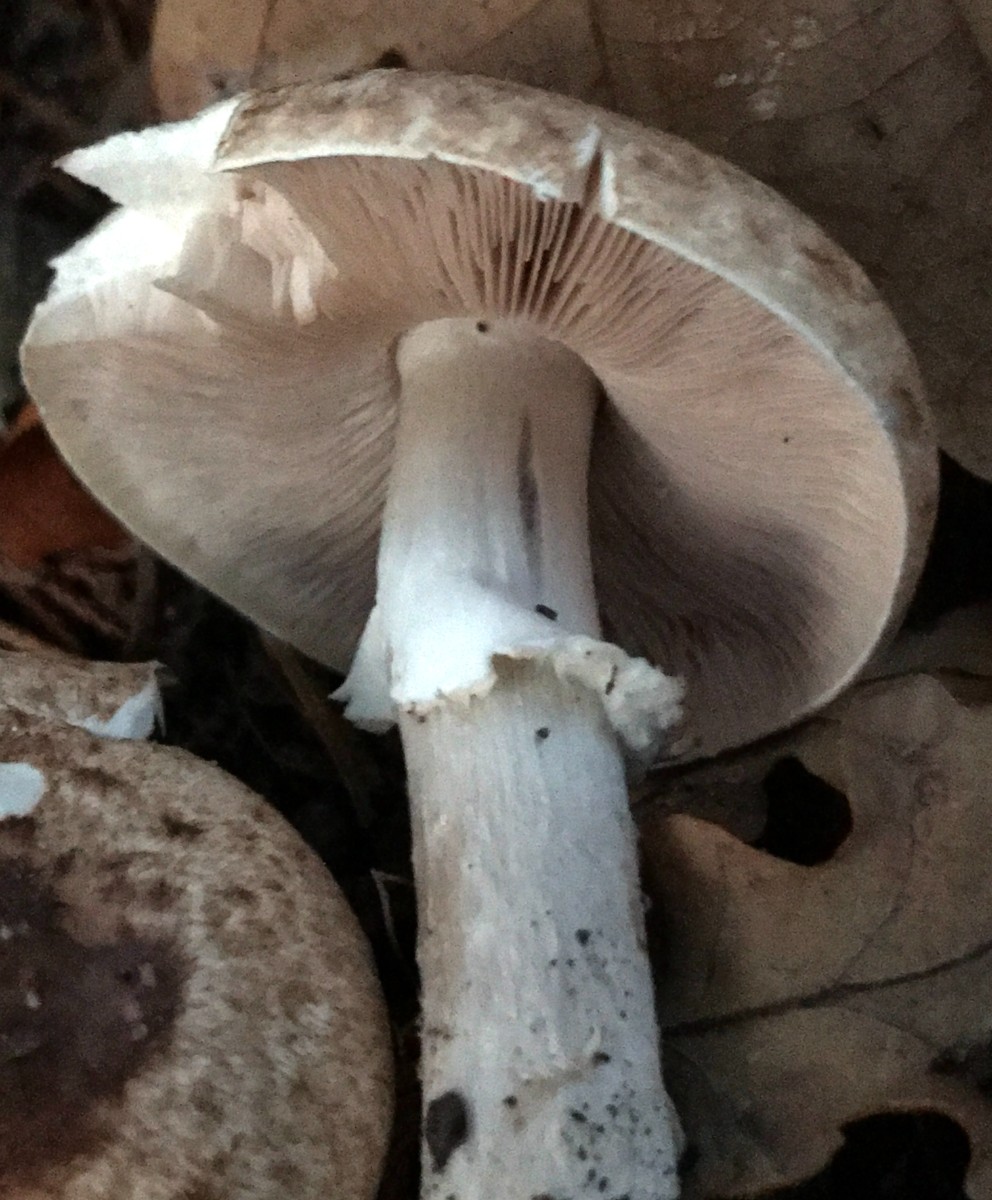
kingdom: Fungi
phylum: Basidiomycota
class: Agaricomycetes
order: Agaricales
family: Agaricaceae
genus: Agaricus
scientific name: Agaricus impudicus
